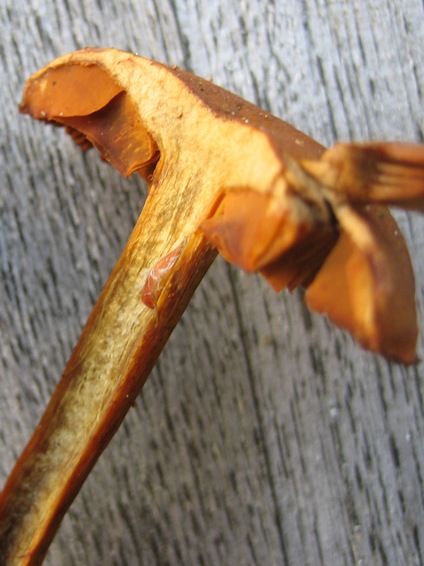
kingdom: Fungi
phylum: Basidiomycota
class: Agaricomycetes
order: Agaricales
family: Cortinariaceae
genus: Cortinarius
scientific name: Cortinarius malicorius
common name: grønkødet slørhat
